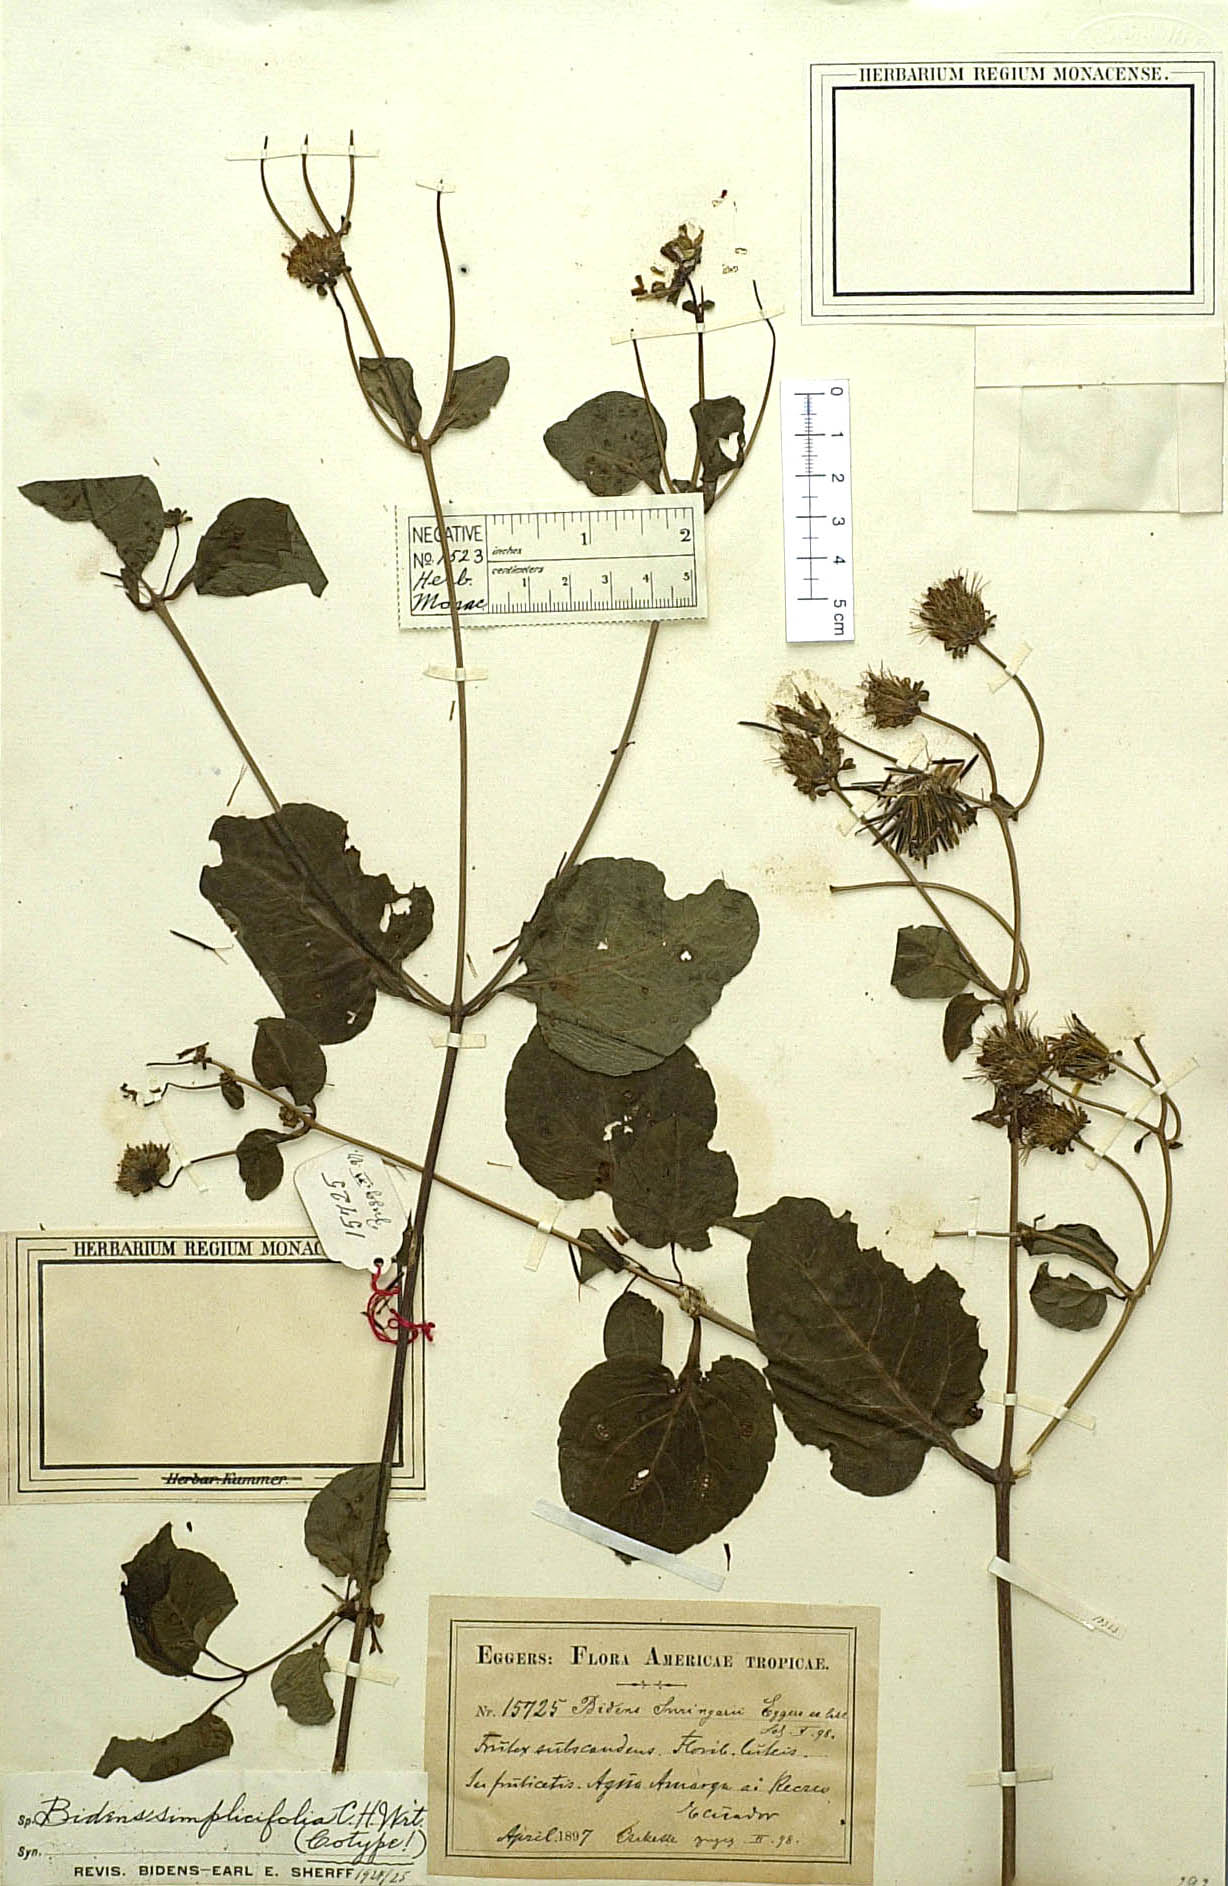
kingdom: Plantae
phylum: Tracheophyta
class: Magnoliopsida
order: Asterales
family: Asteraceae
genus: Bidens
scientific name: Bidens simplicifolia
